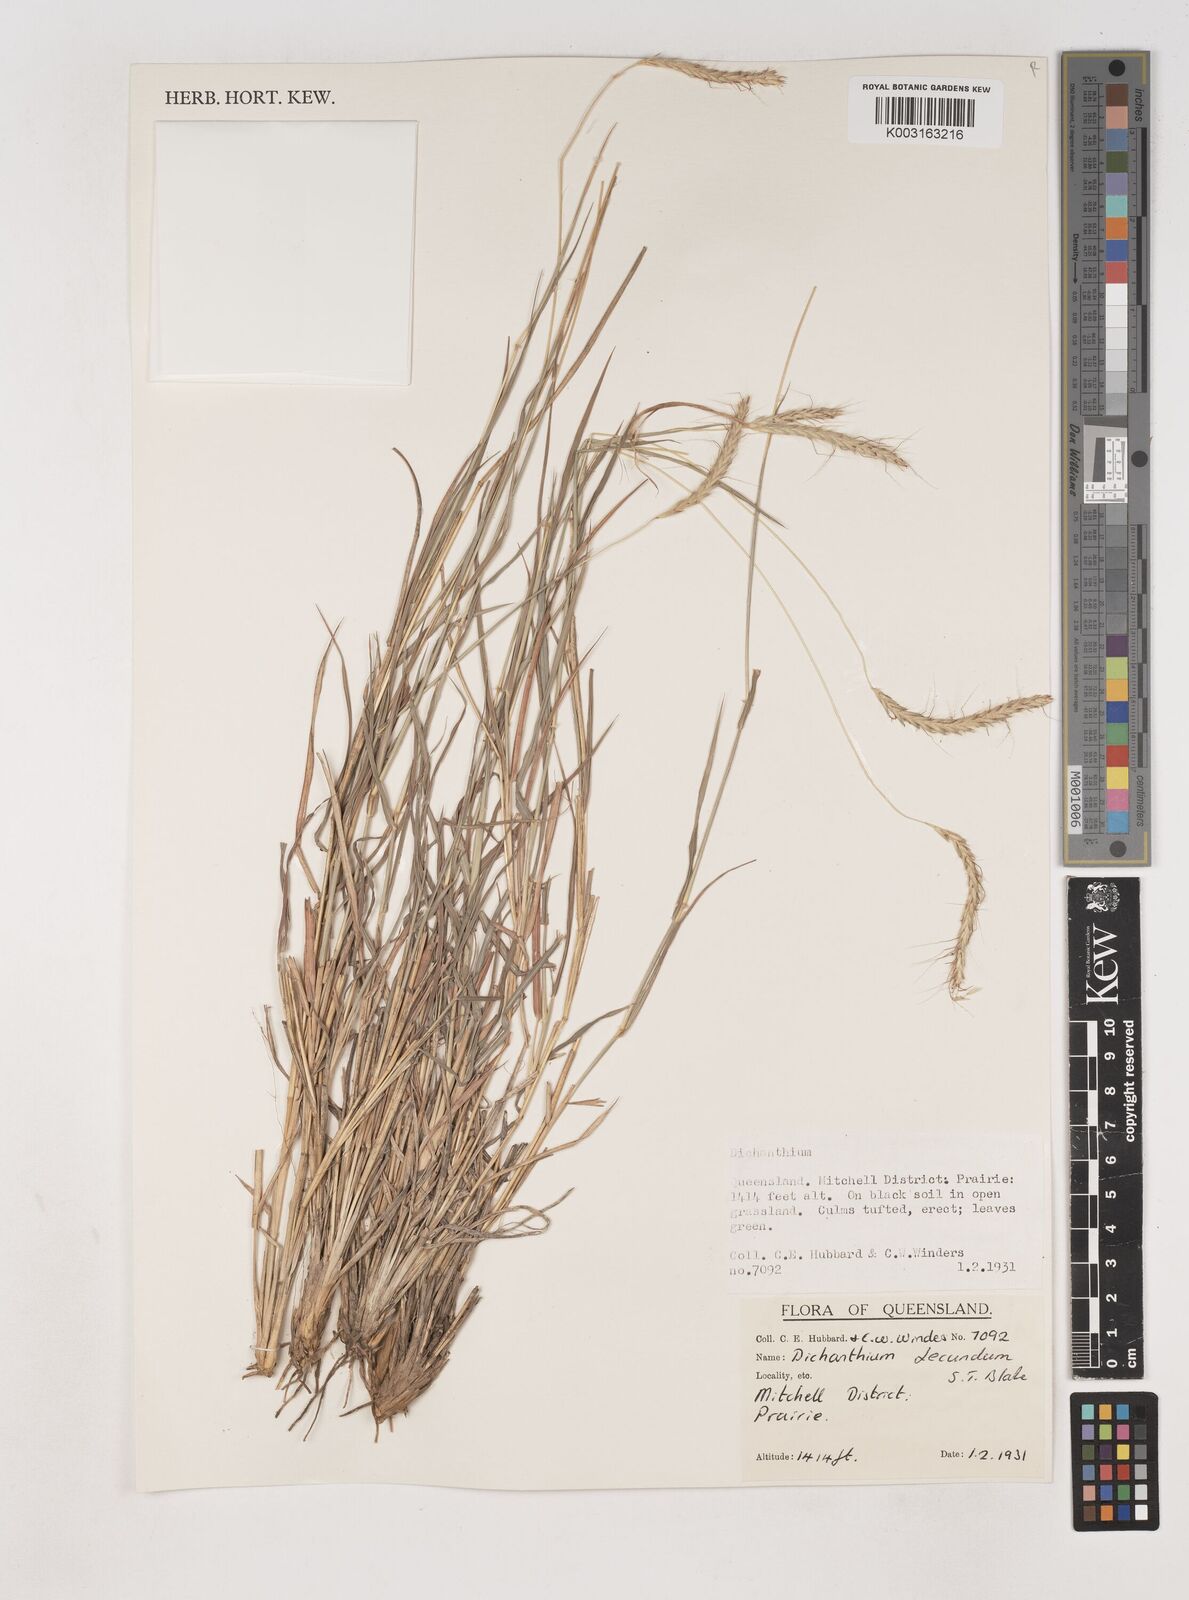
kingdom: Plantae
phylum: Tracheophyta
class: Liliopsida
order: Poales
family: Poaceae
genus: Dichanthium
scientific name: Dichanthium fecundum
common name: Bundle-bundle
